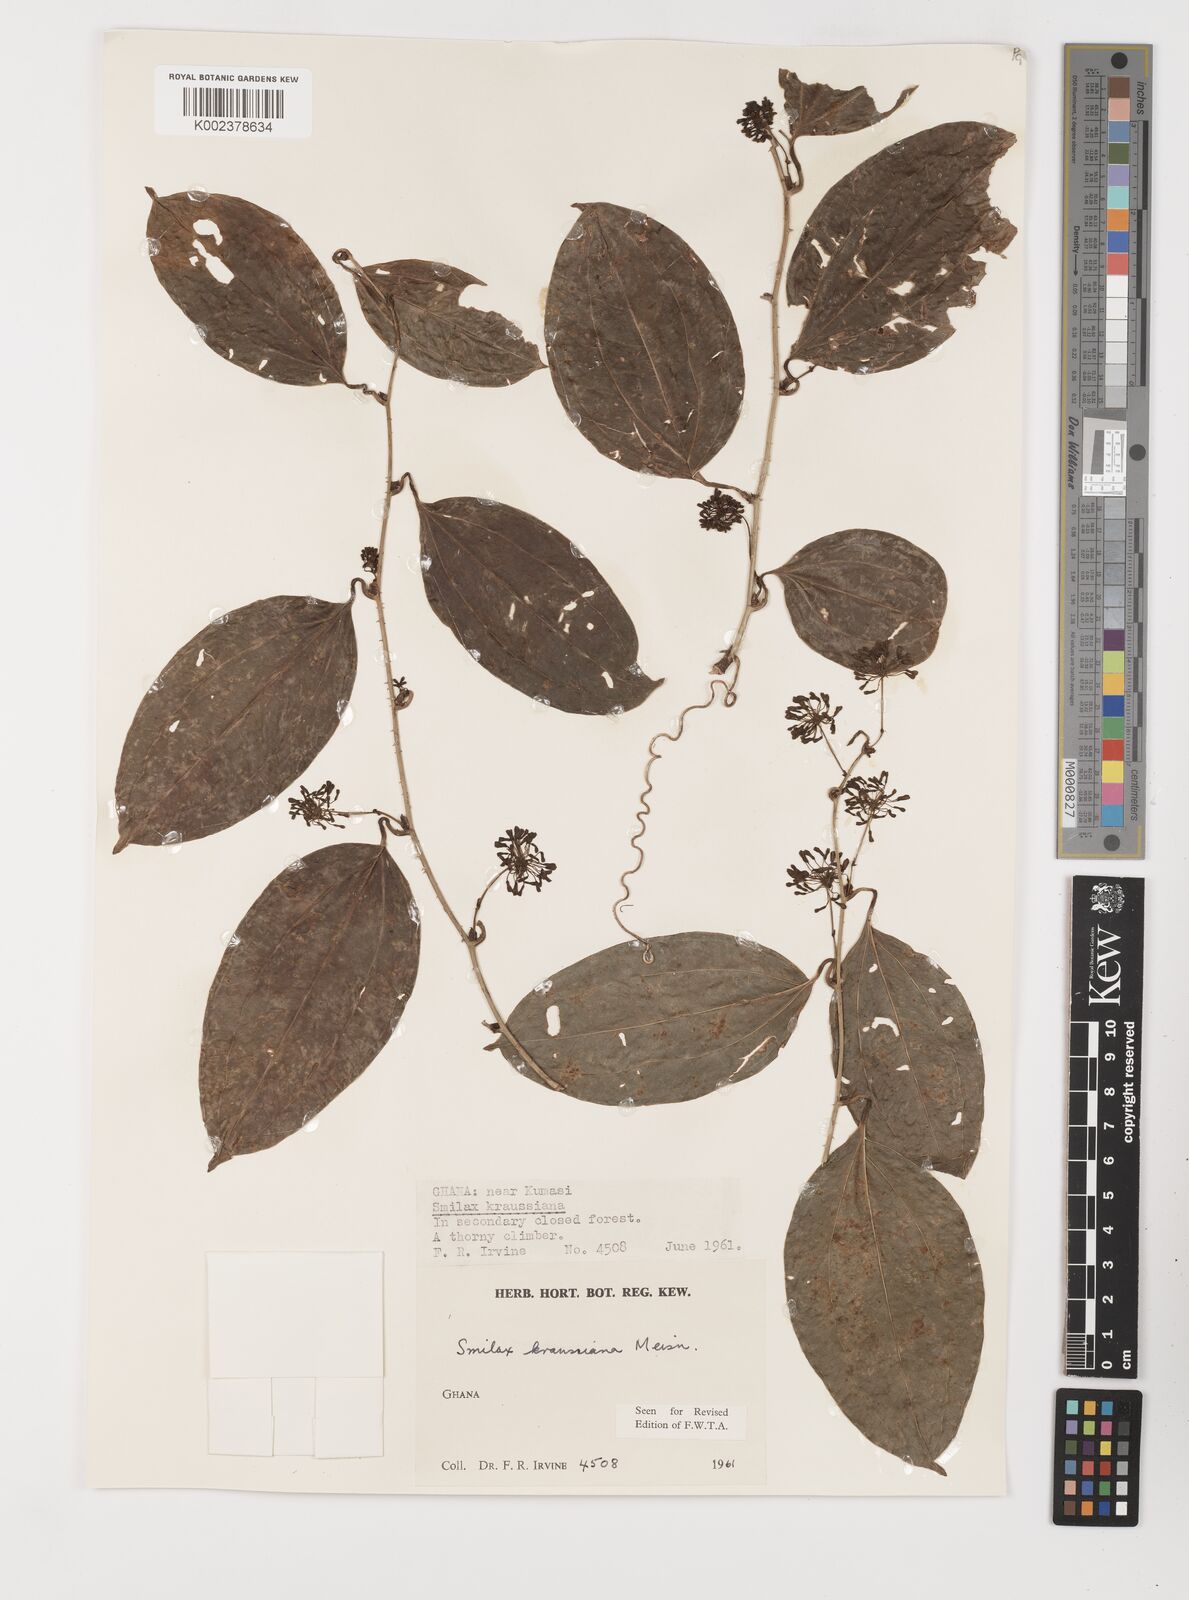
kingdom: Plantae
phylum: Tracheophyta
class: Liliopsida
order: Liliales
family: Smilacaceae
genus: Smilax
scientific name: Smilax anceps
